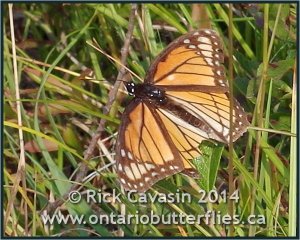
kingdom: Animalia
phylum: Arthropoda
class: Insecta
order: Lepidoptera
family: Nymphalidae
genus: Limenitis
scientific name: Limenitis archippus
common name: Viceroy
